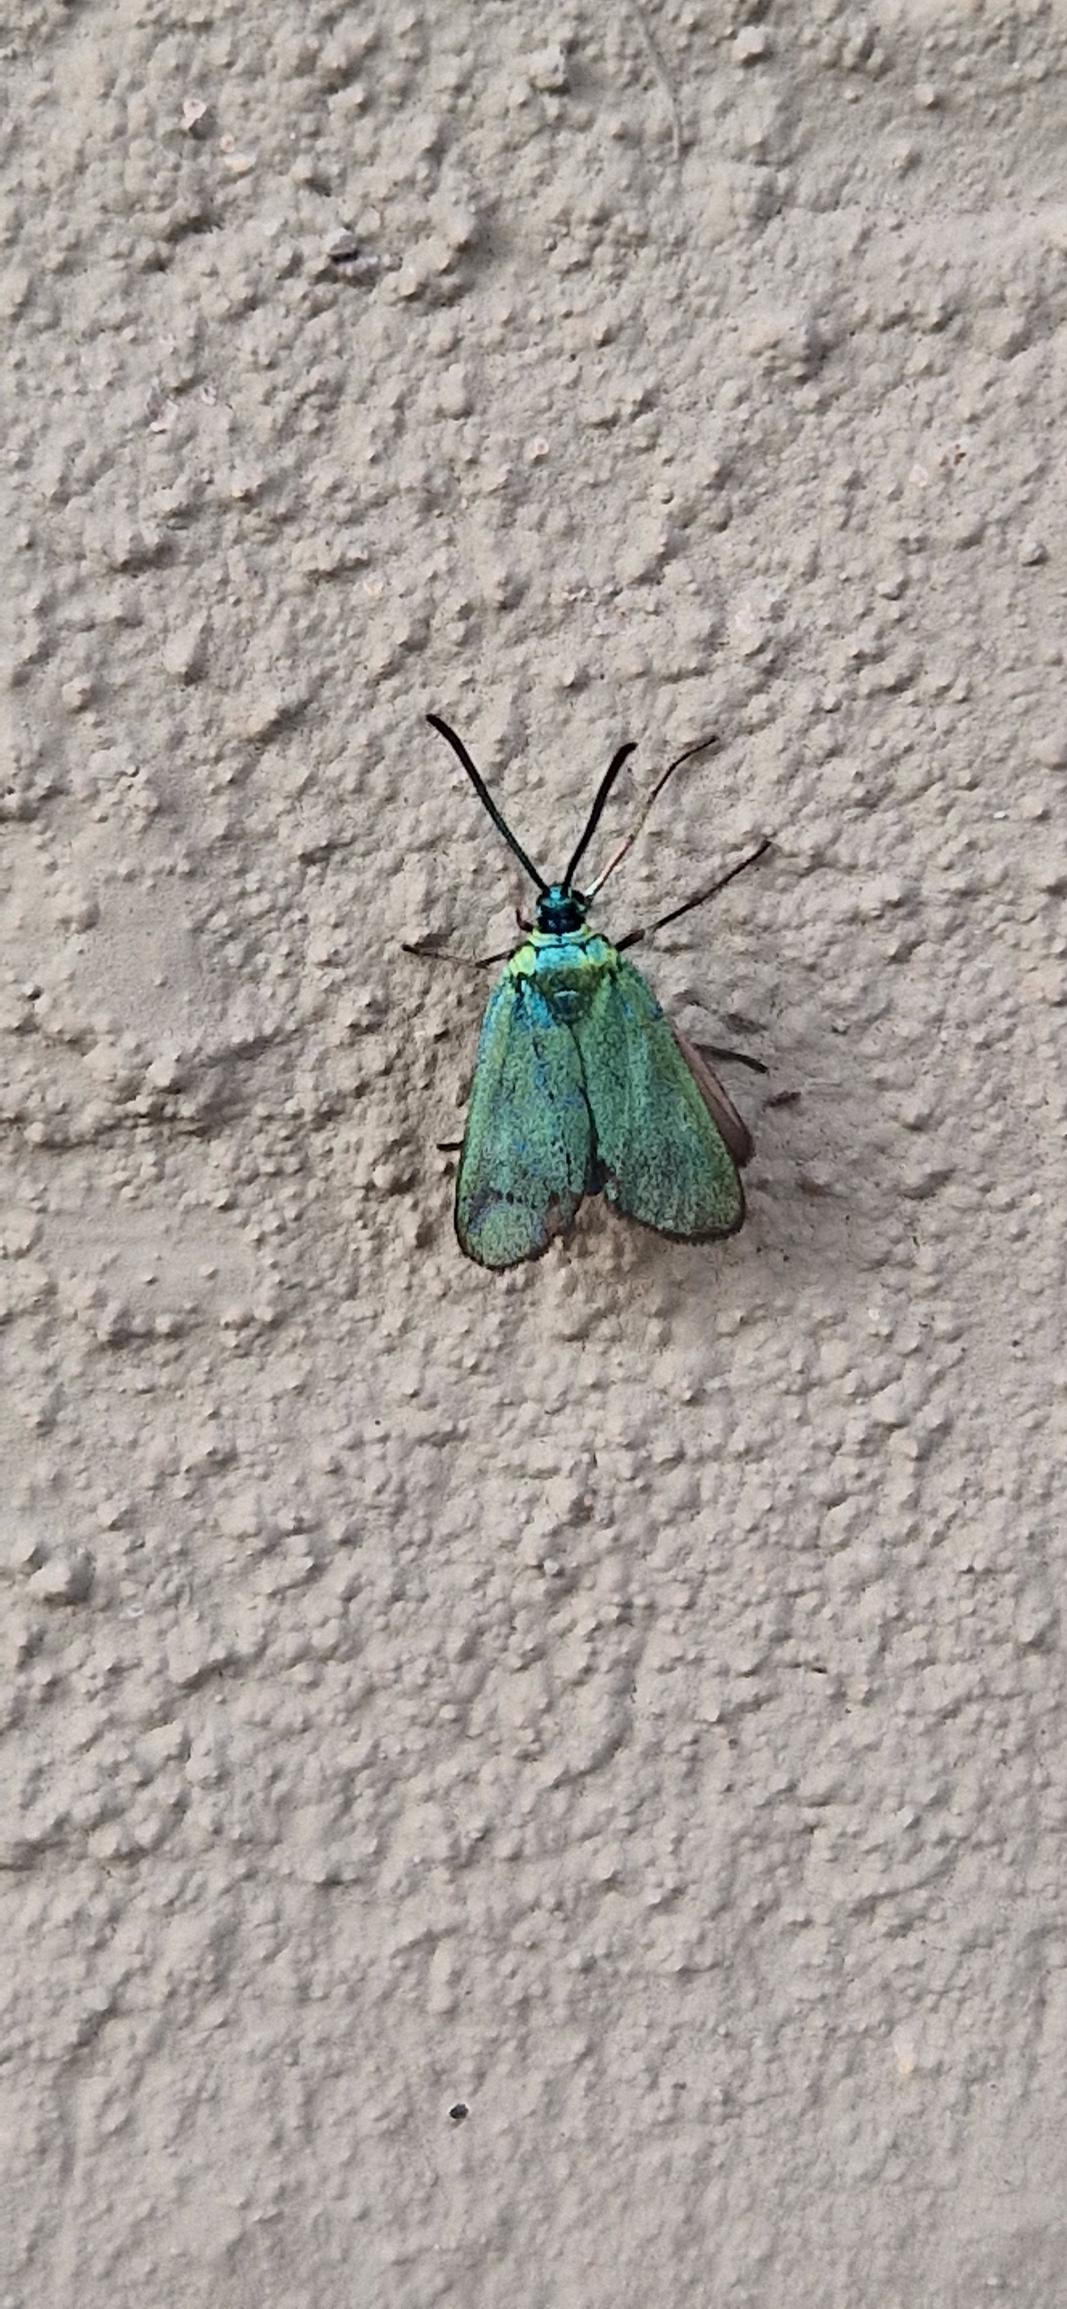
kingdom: Animalia
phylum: Arthropoda
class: Insecta
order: Lepidoptera
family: Zygaenidae
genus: Adscita
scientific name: Adscita statices
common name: Metalvinge
